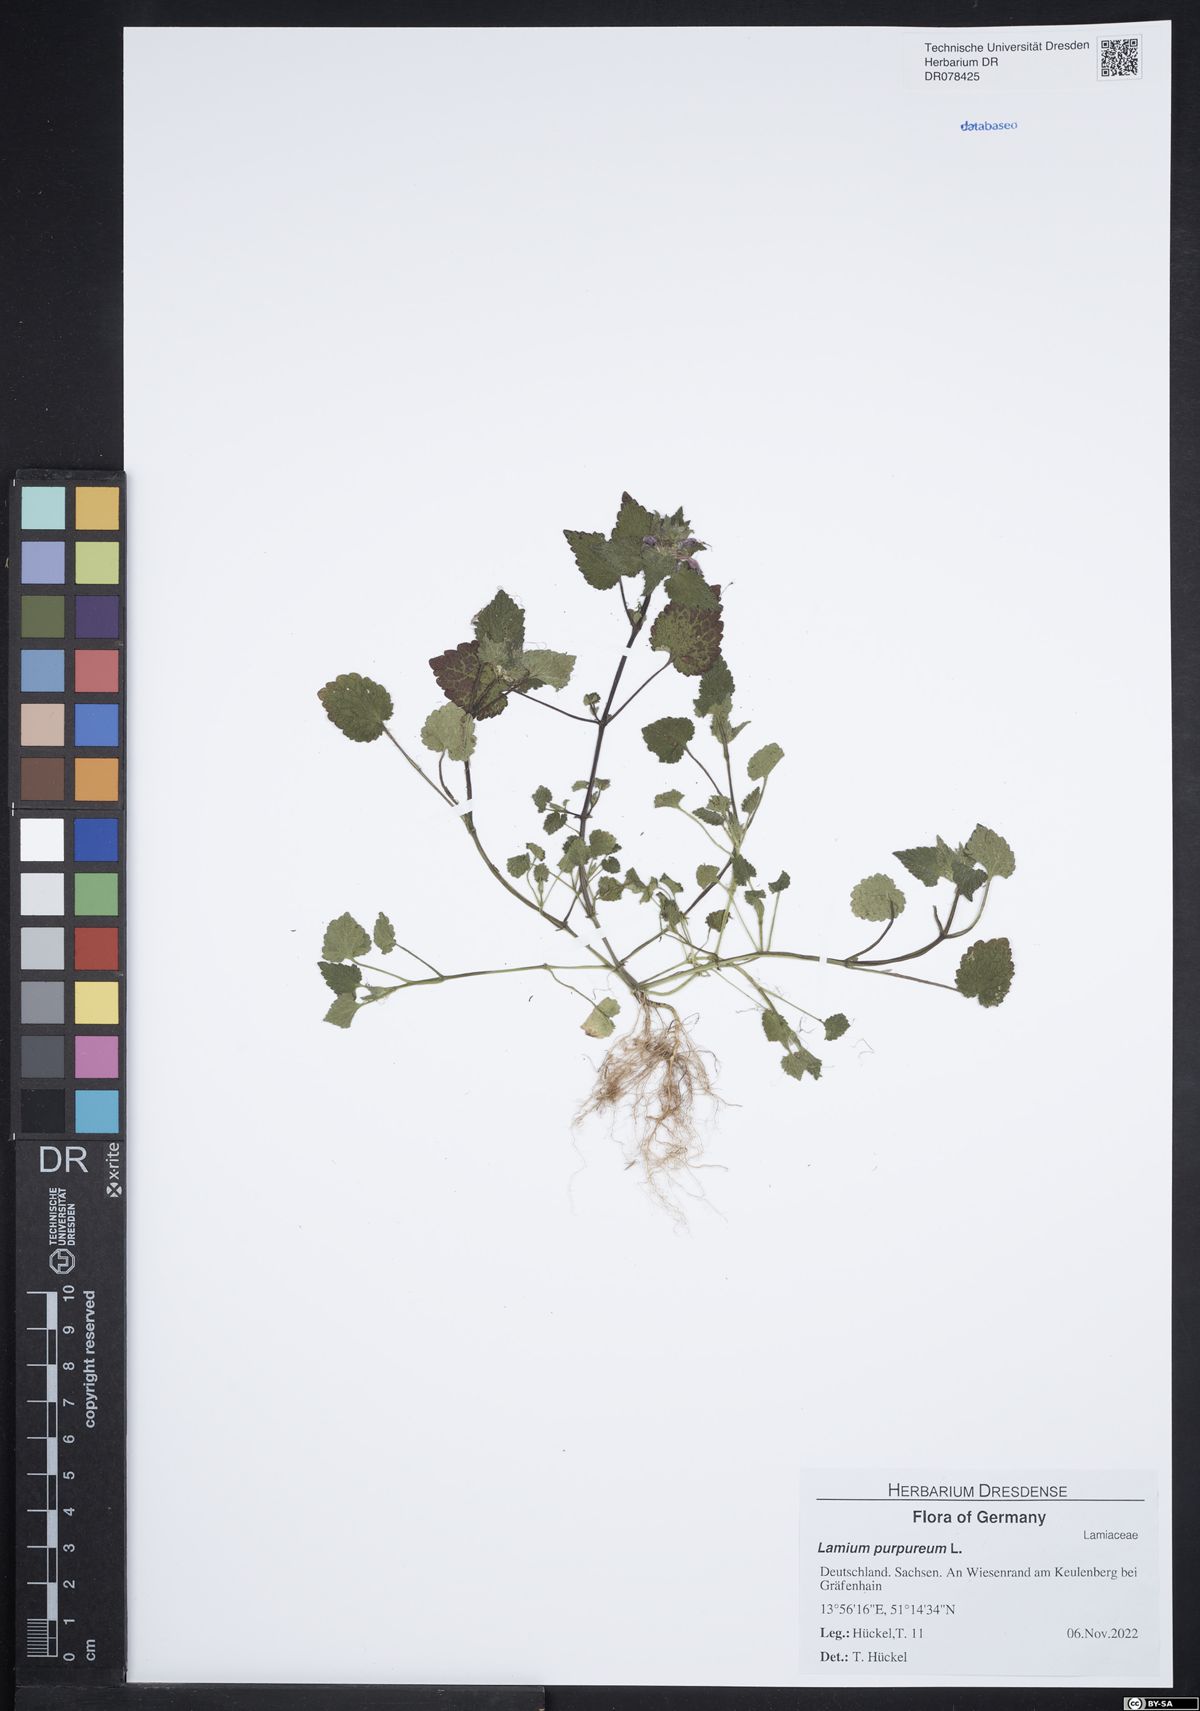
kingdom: Plantae
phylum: Tracheophyta
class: Magnoliopsida
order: Lamiales
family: Lamiaceae
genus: Lamium
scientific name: Lamium purpureum
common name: Red dead-nettle
